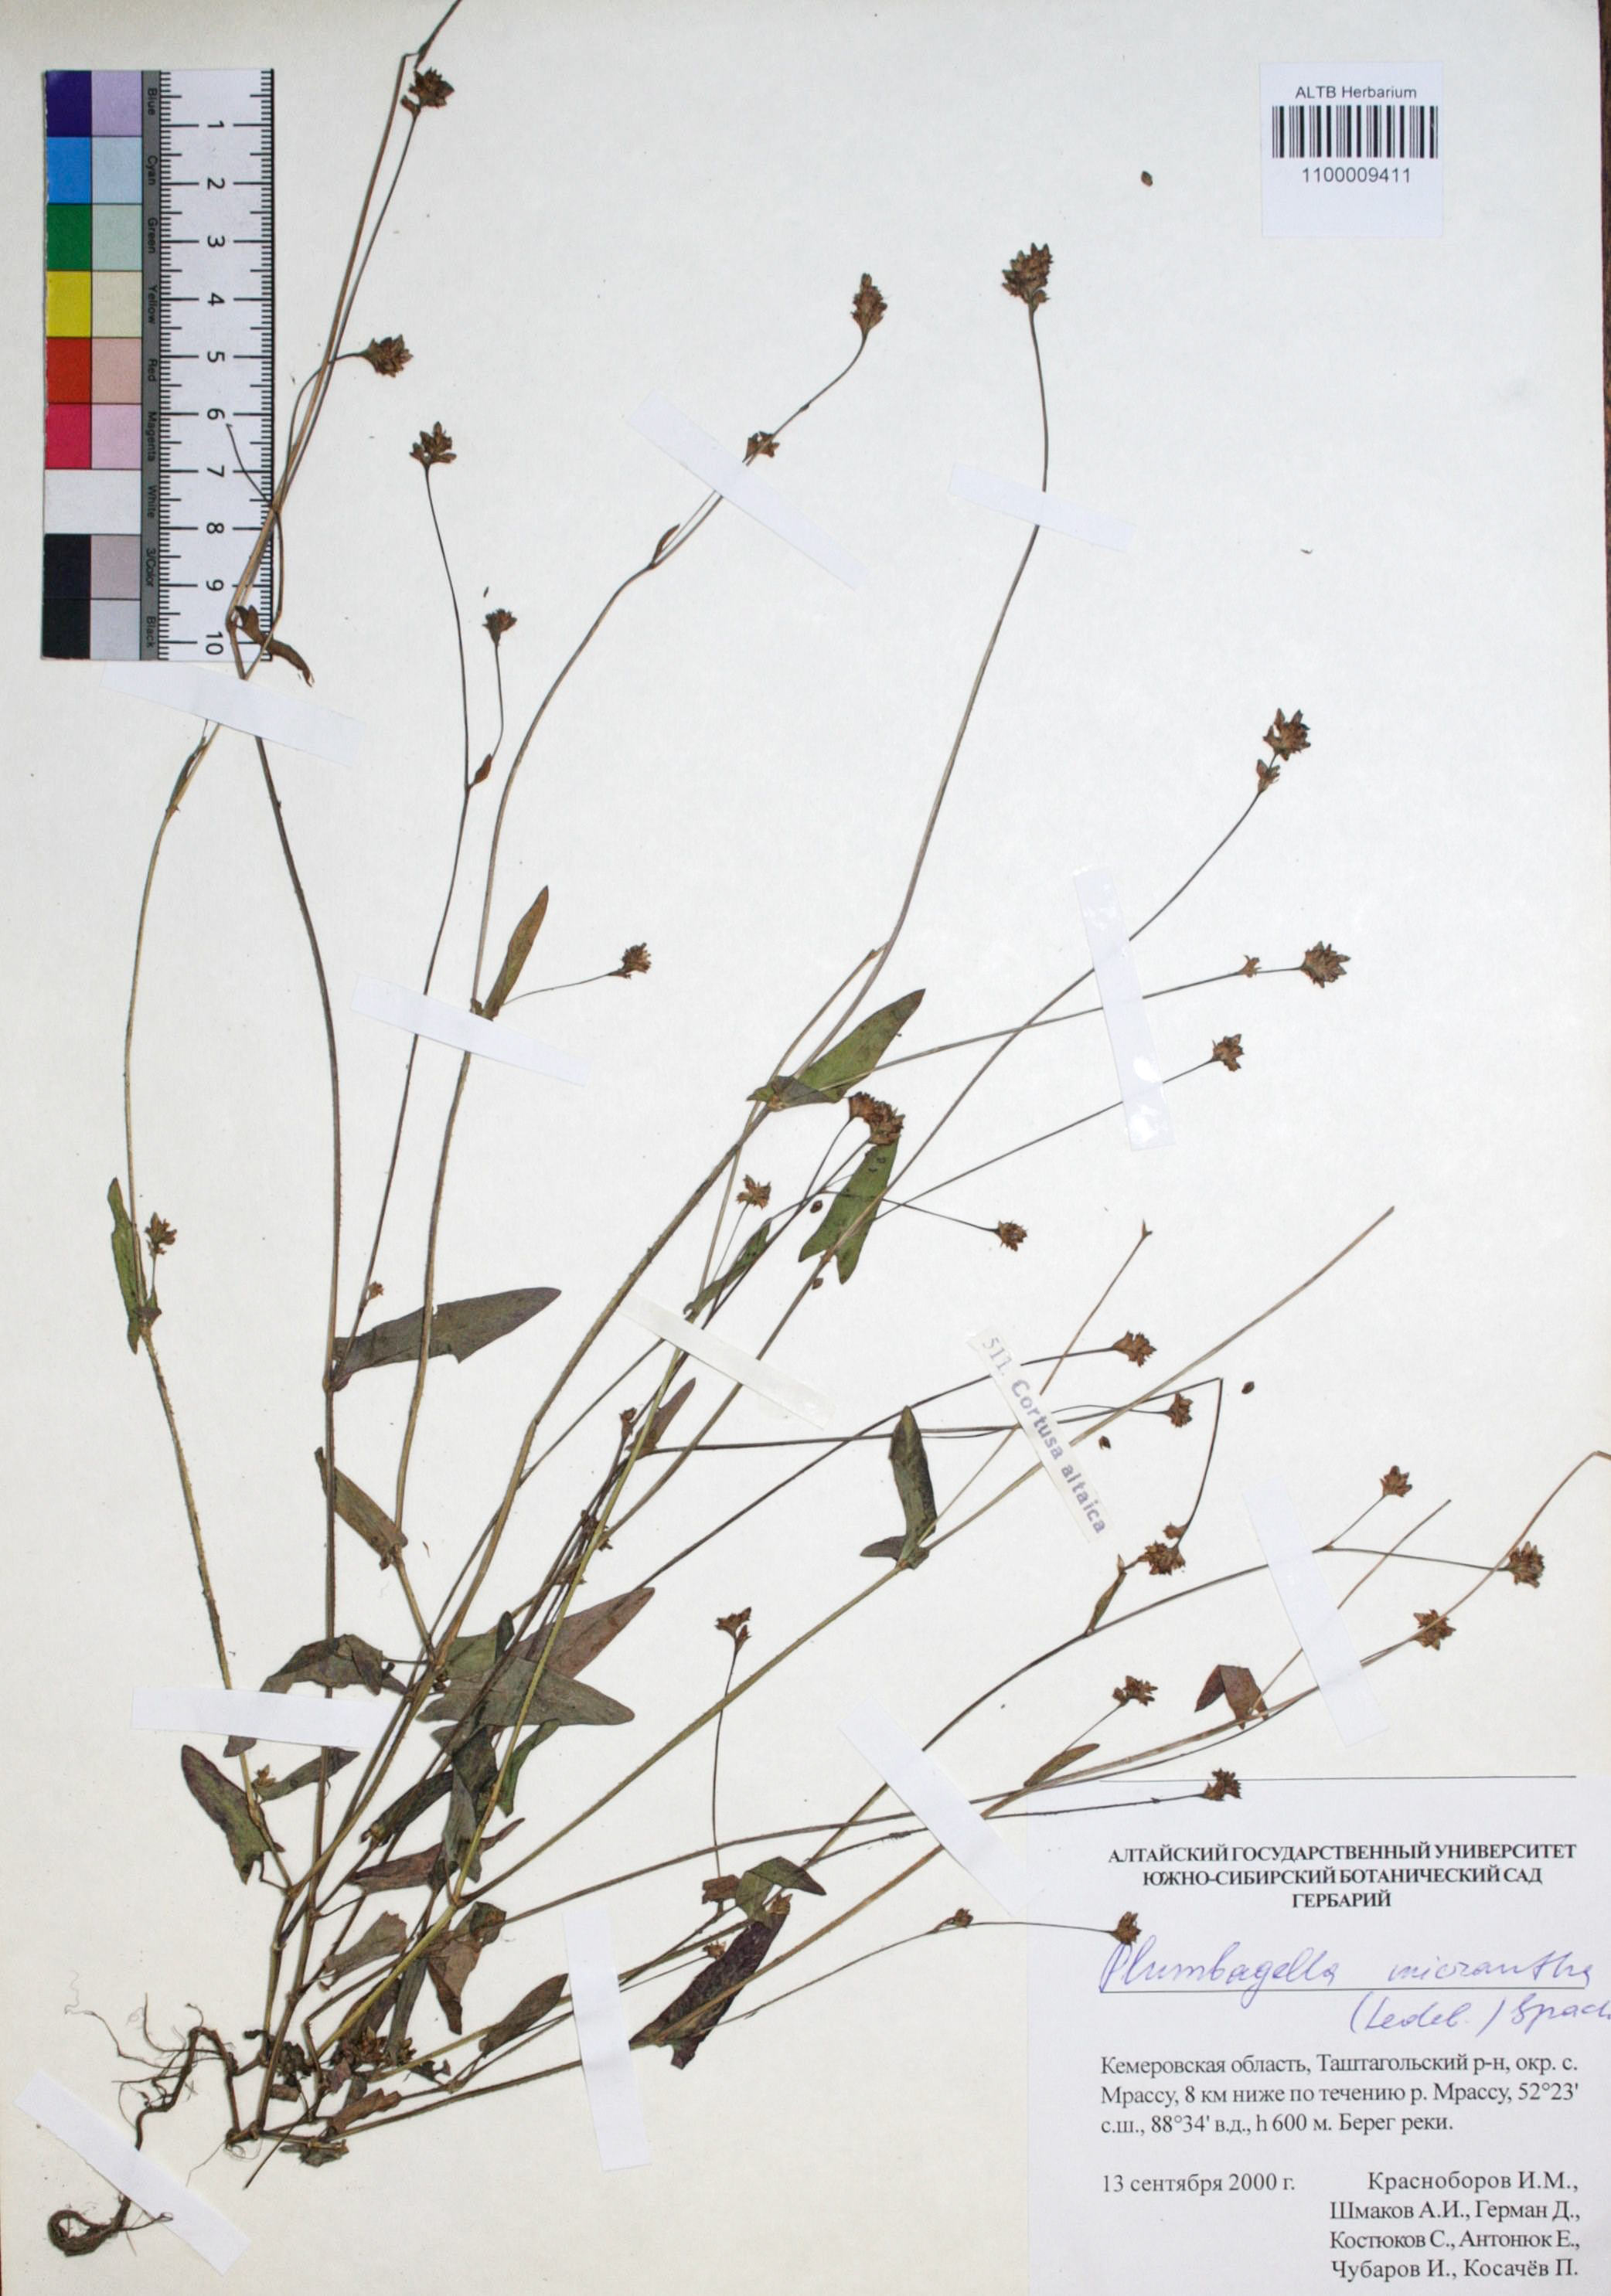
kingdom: Plantae
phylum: Tracheophyta
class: Magnoliopsida
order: Caryophyllales
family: Plumbaginaceae
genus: Plumbagella
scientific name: Plumbagella micrantha
